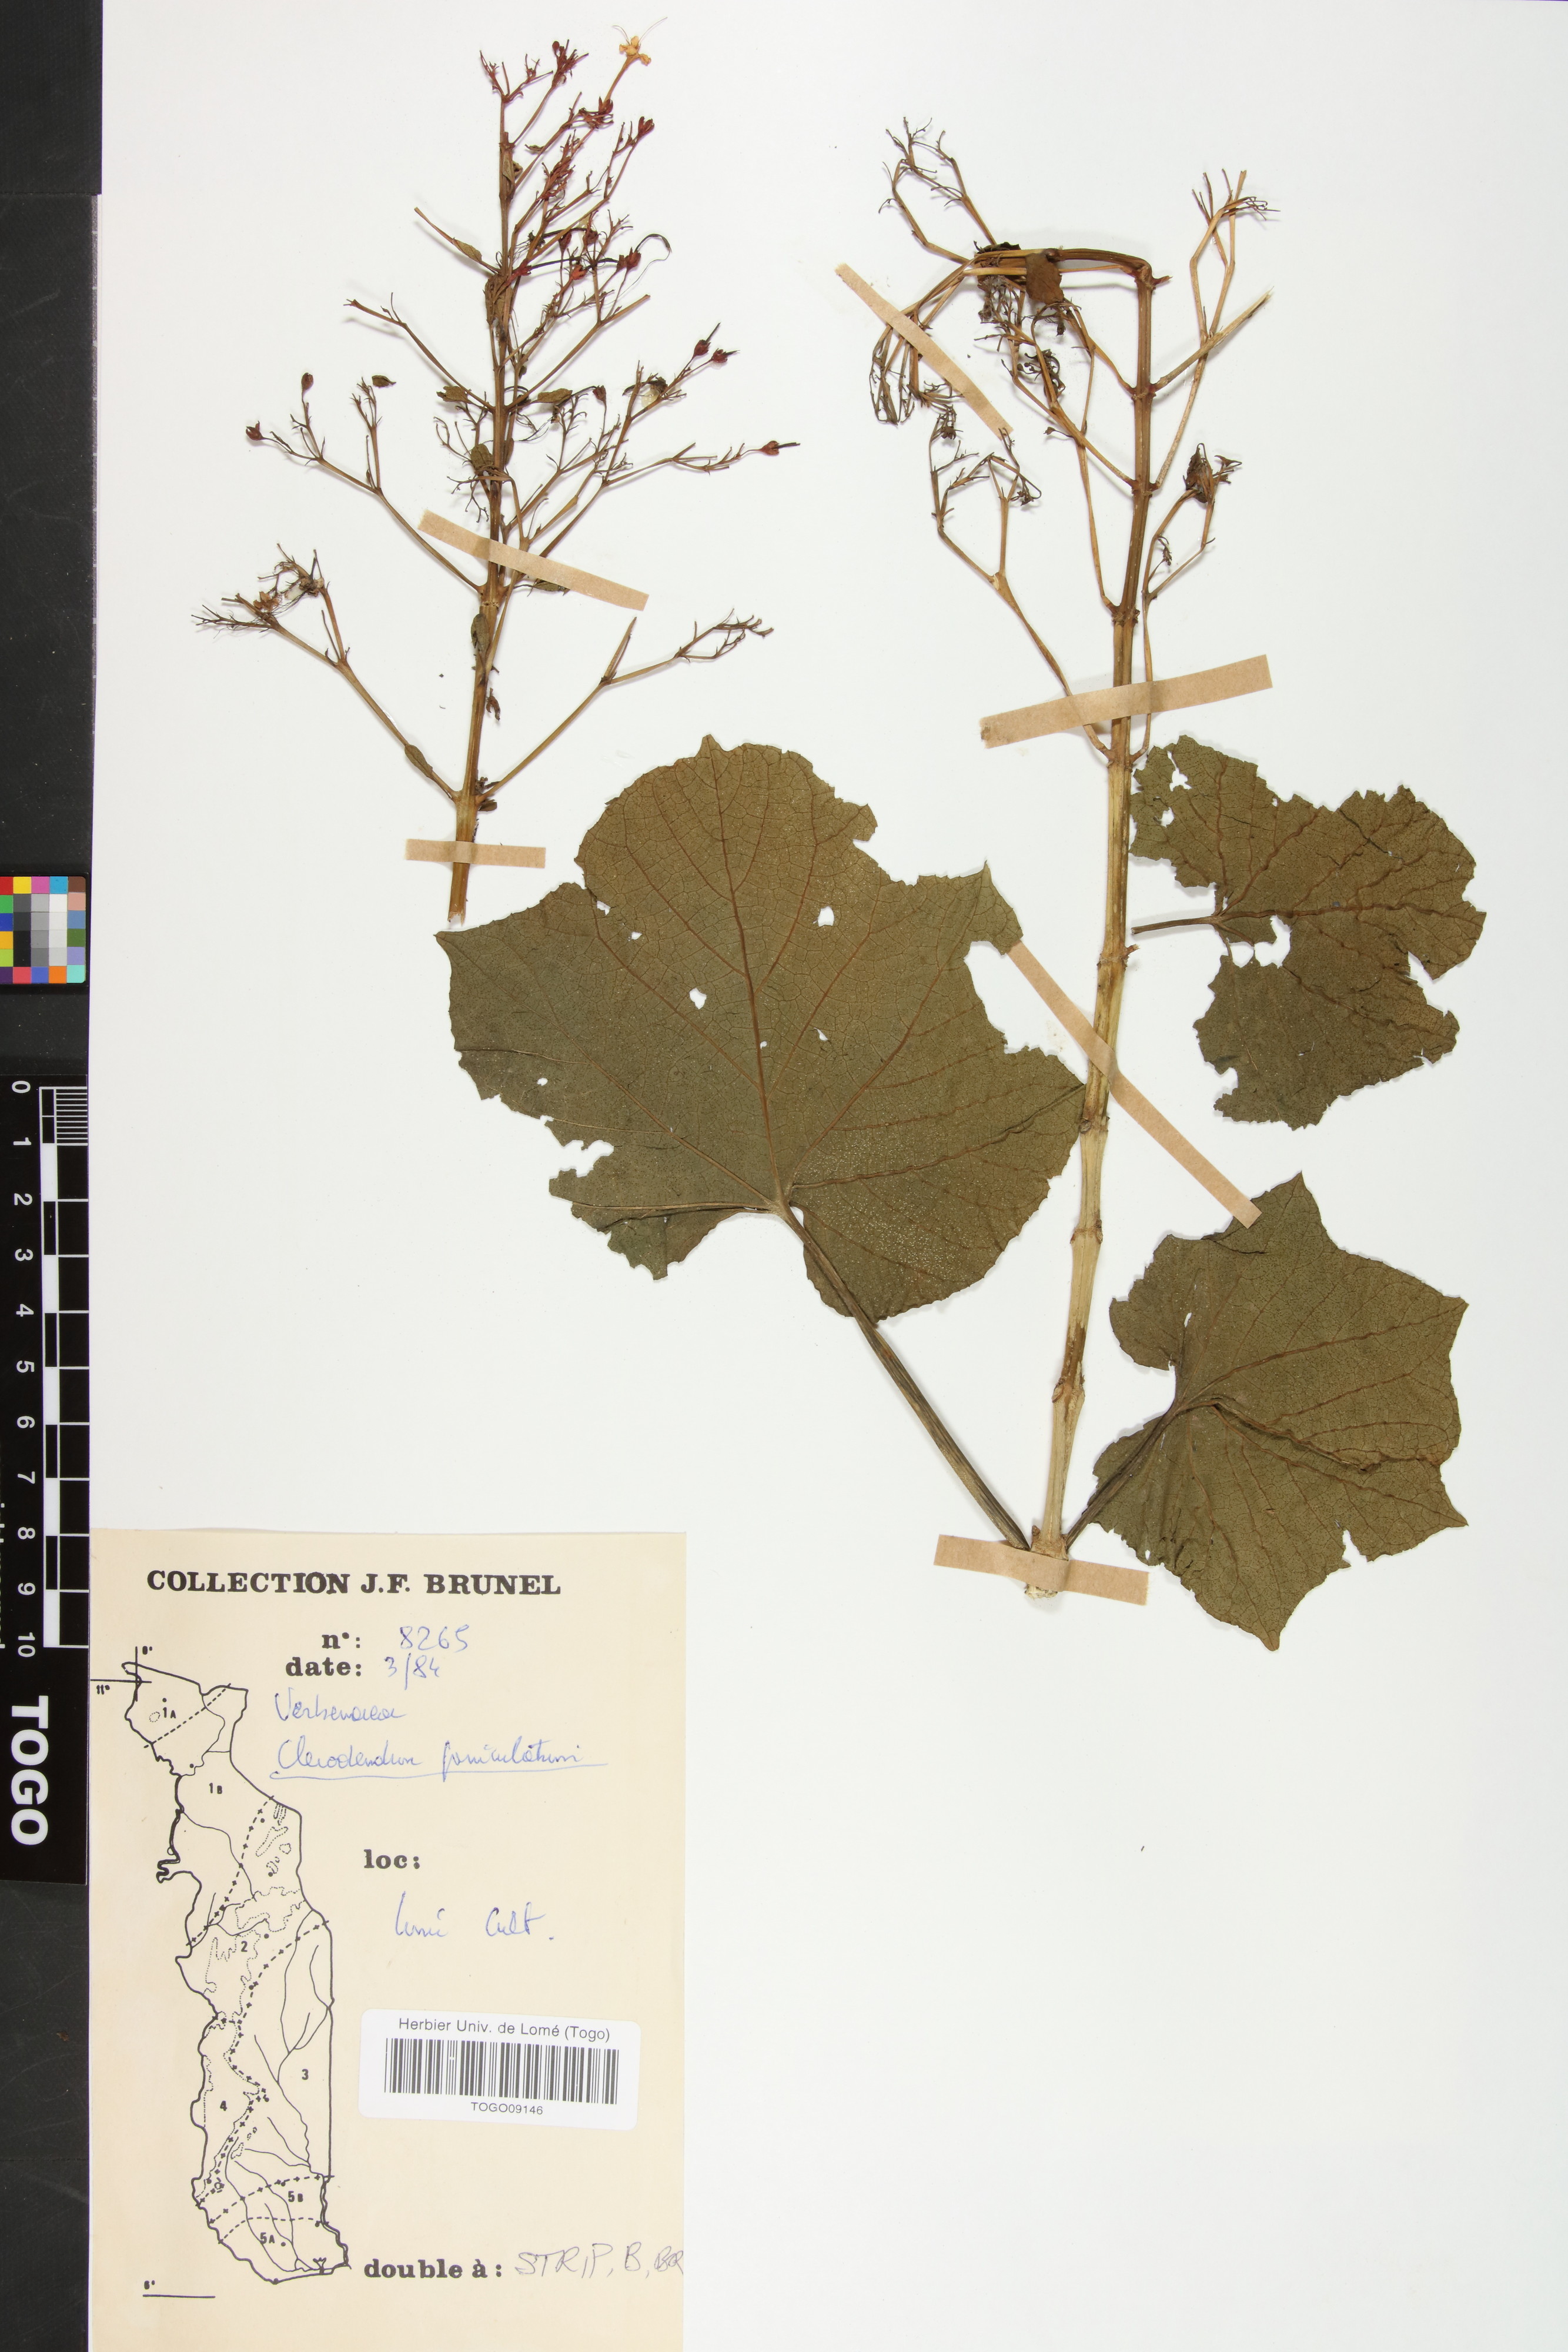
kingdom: Plantae
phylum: Tracheophyta
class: Magnoliopsida
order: Lamiales
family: Lamiaceae
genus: Volkameria
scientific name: Volkameria aculeata
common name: Prickly myrtle
